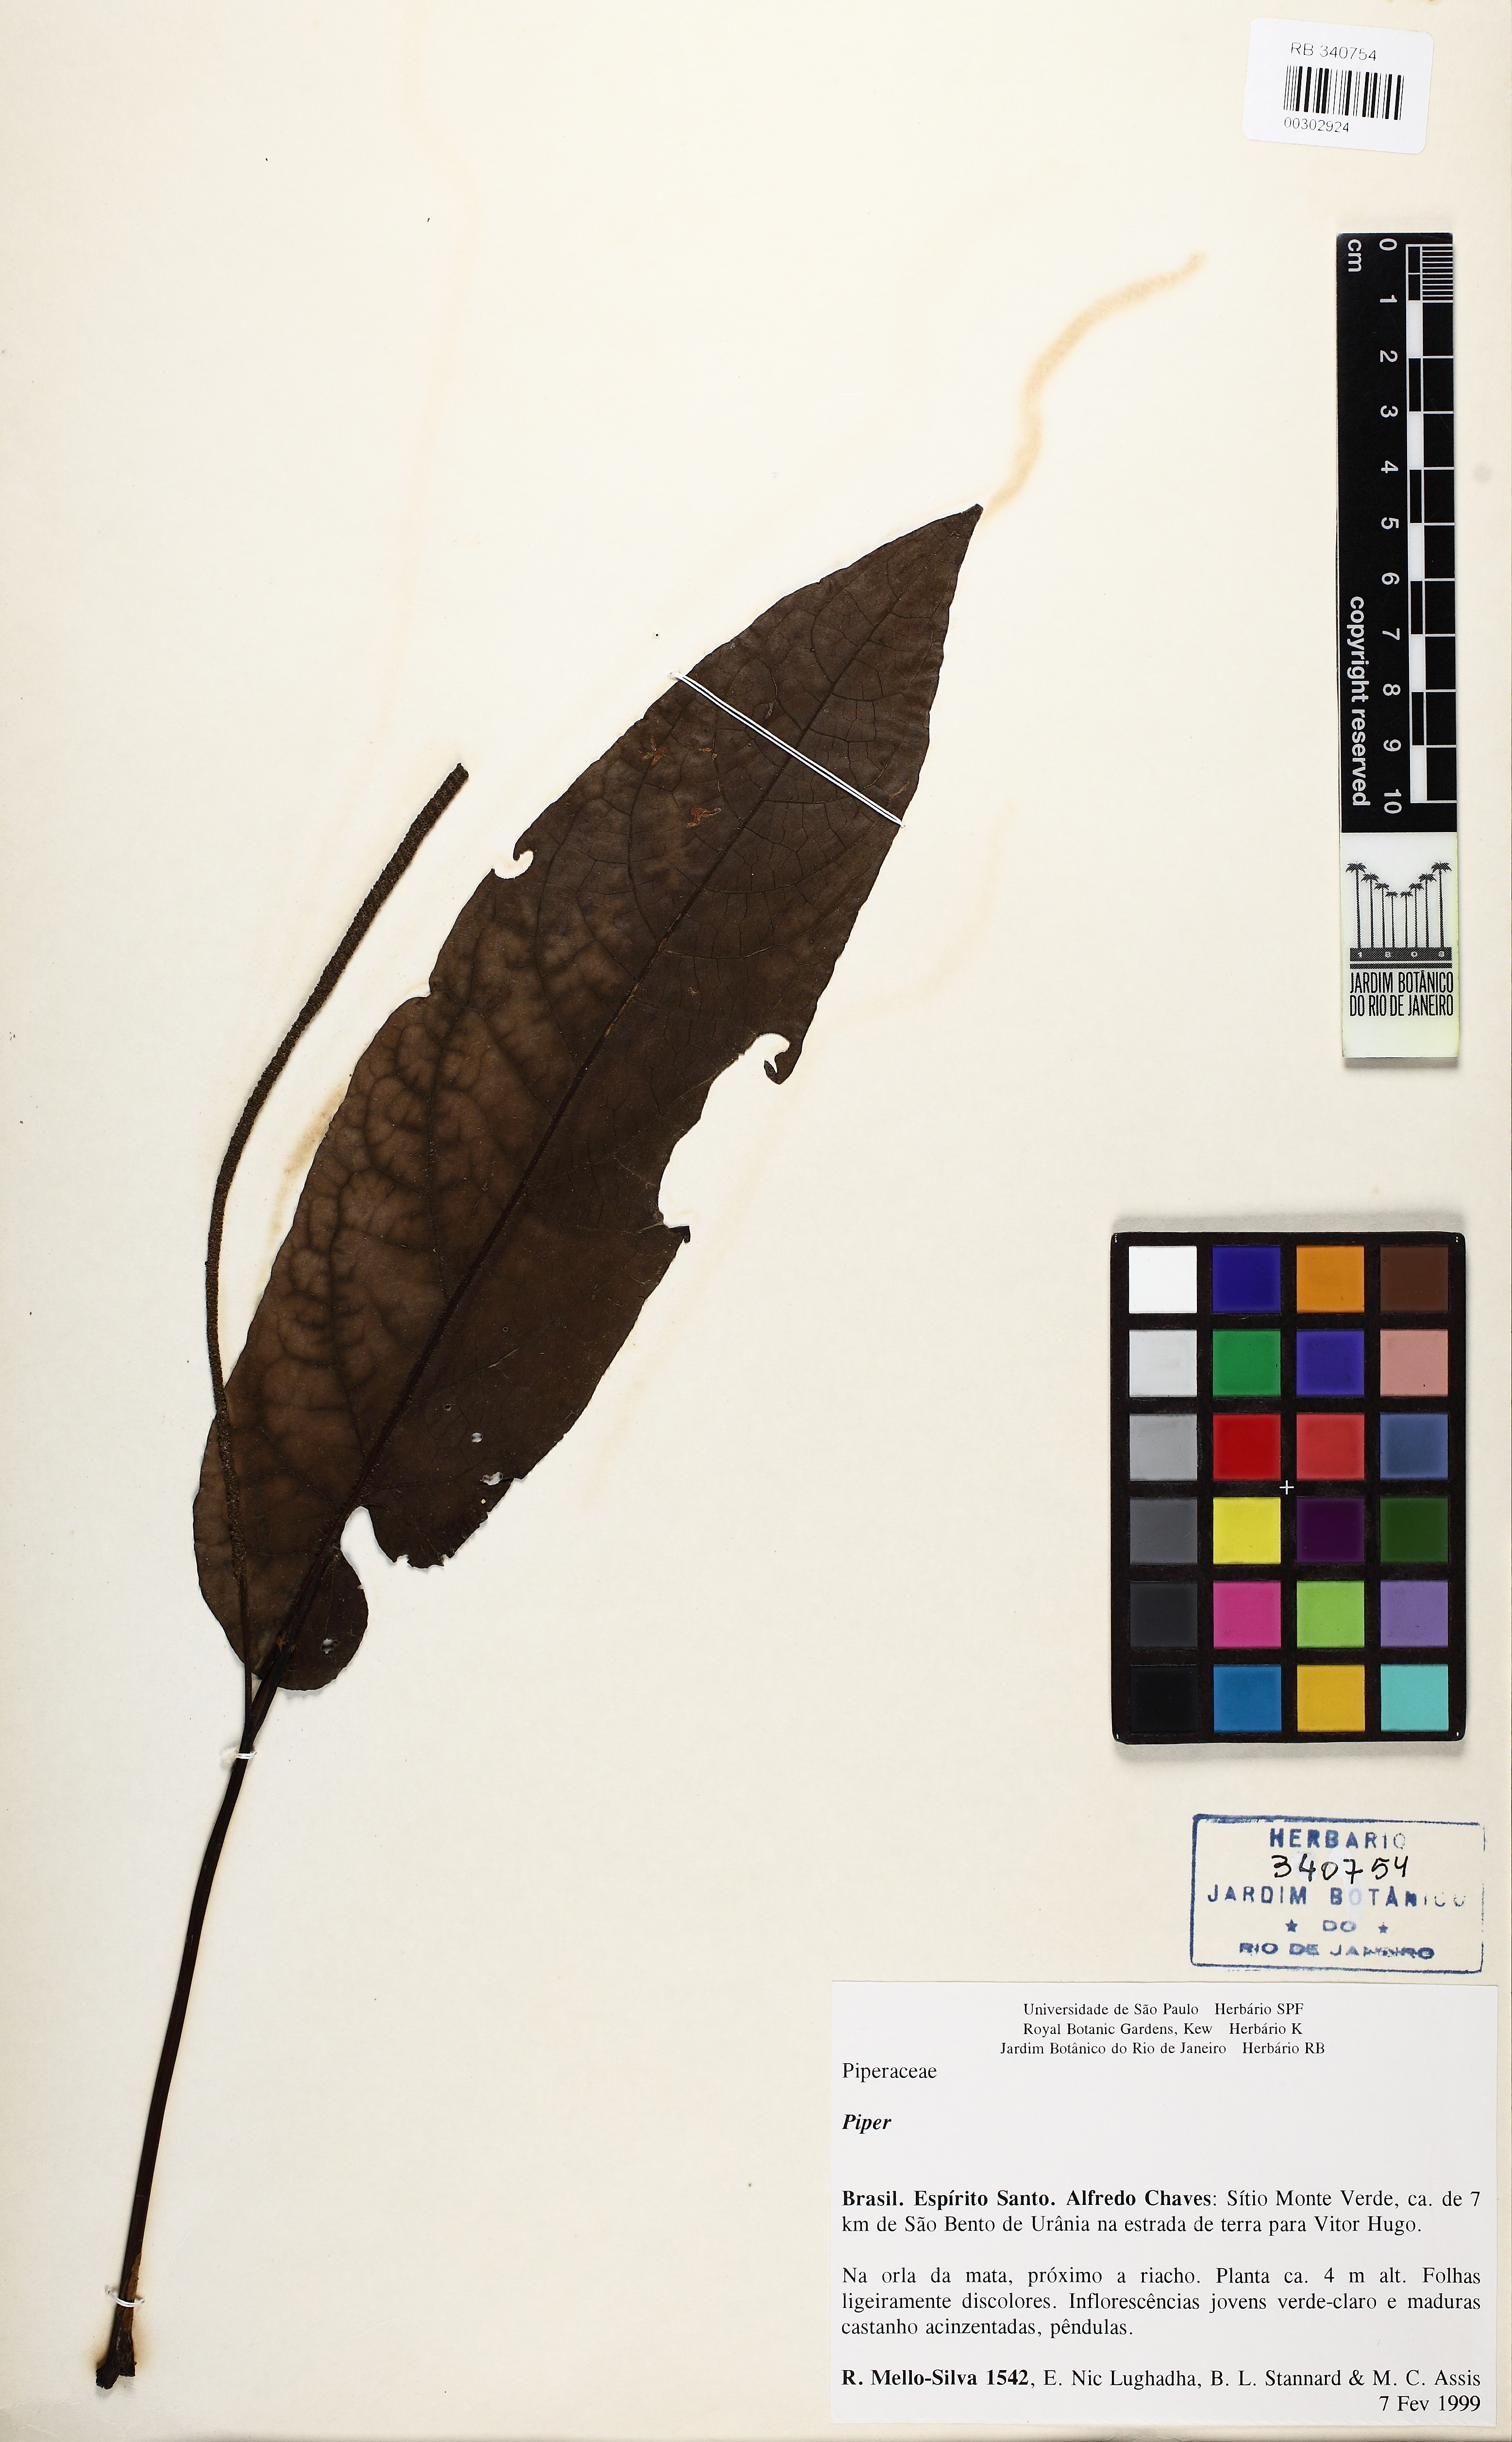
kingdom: Plantae
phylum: Tracheophyta
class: Magnoliopsida
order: Piperales
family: Piperaceae
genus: Piper
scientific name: Piper
